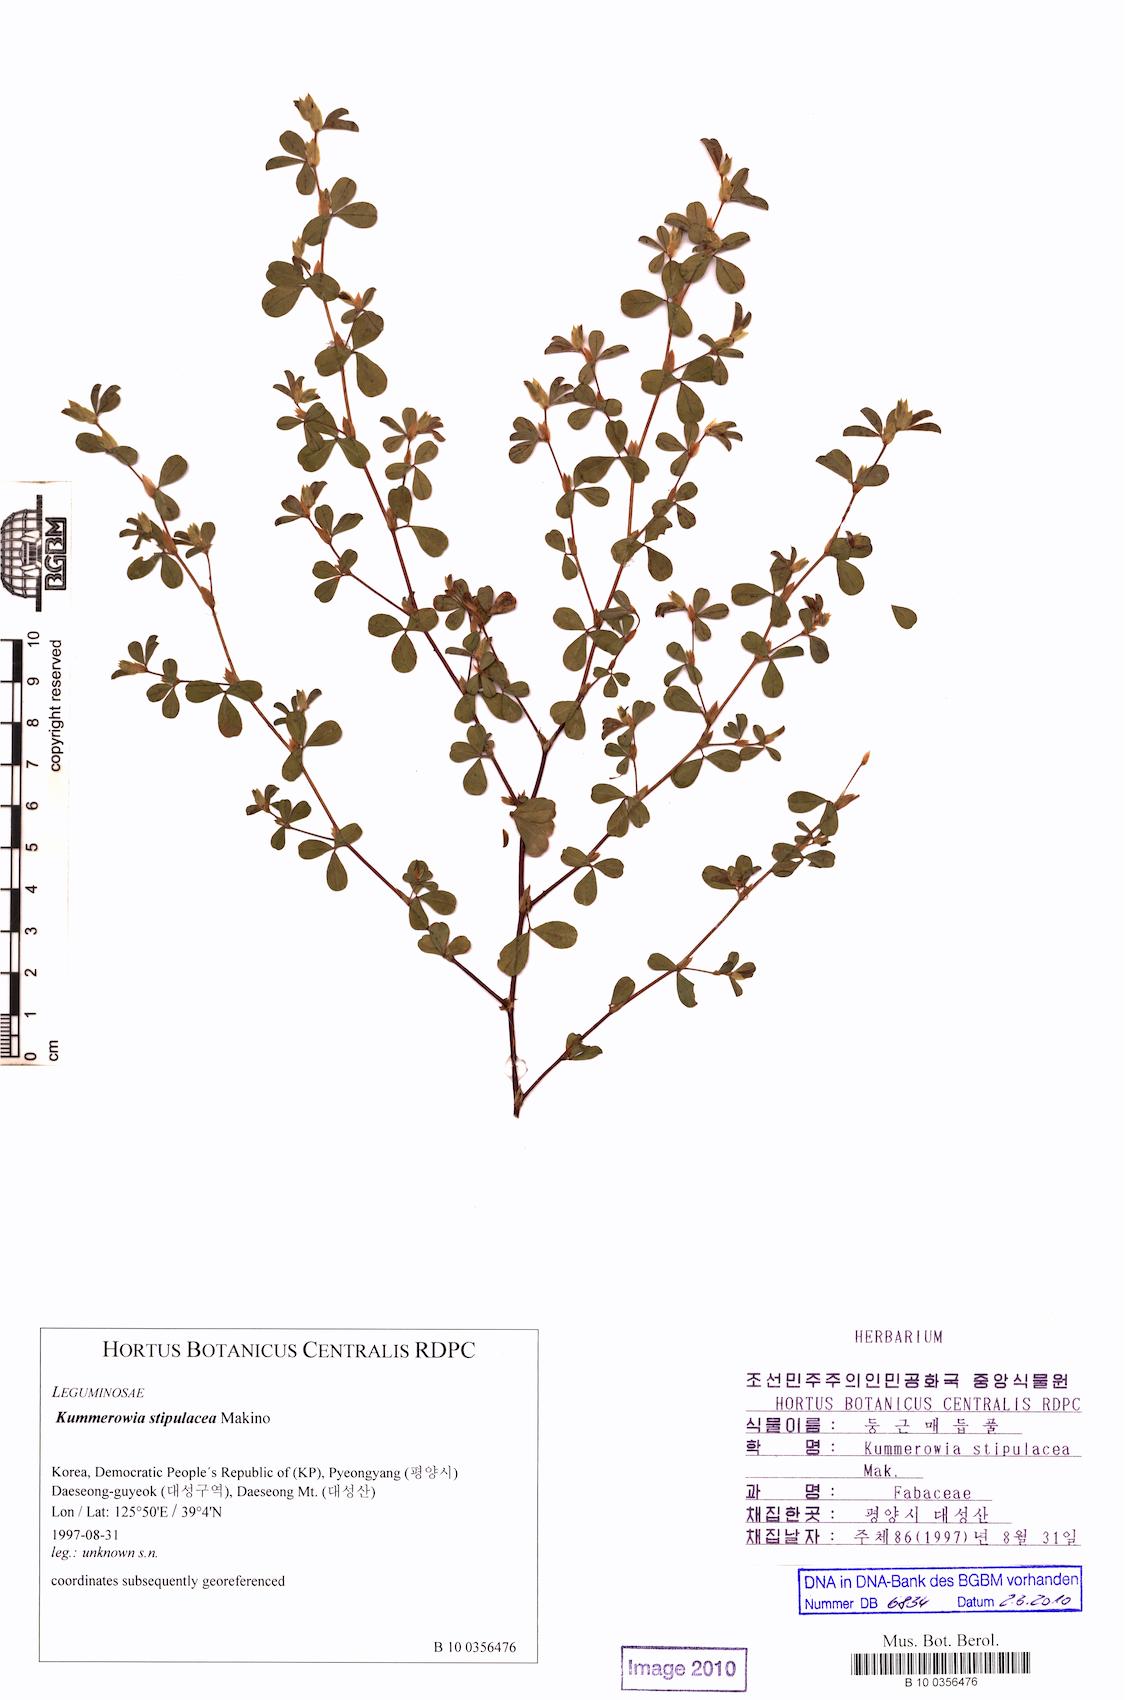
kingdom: Plantae
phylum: Tracheophyta
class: Magnoliopsida
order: Fabales
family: Fabaceae
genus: Kummerowia
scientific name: Kummerowia stipulacea
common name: Korean clover
